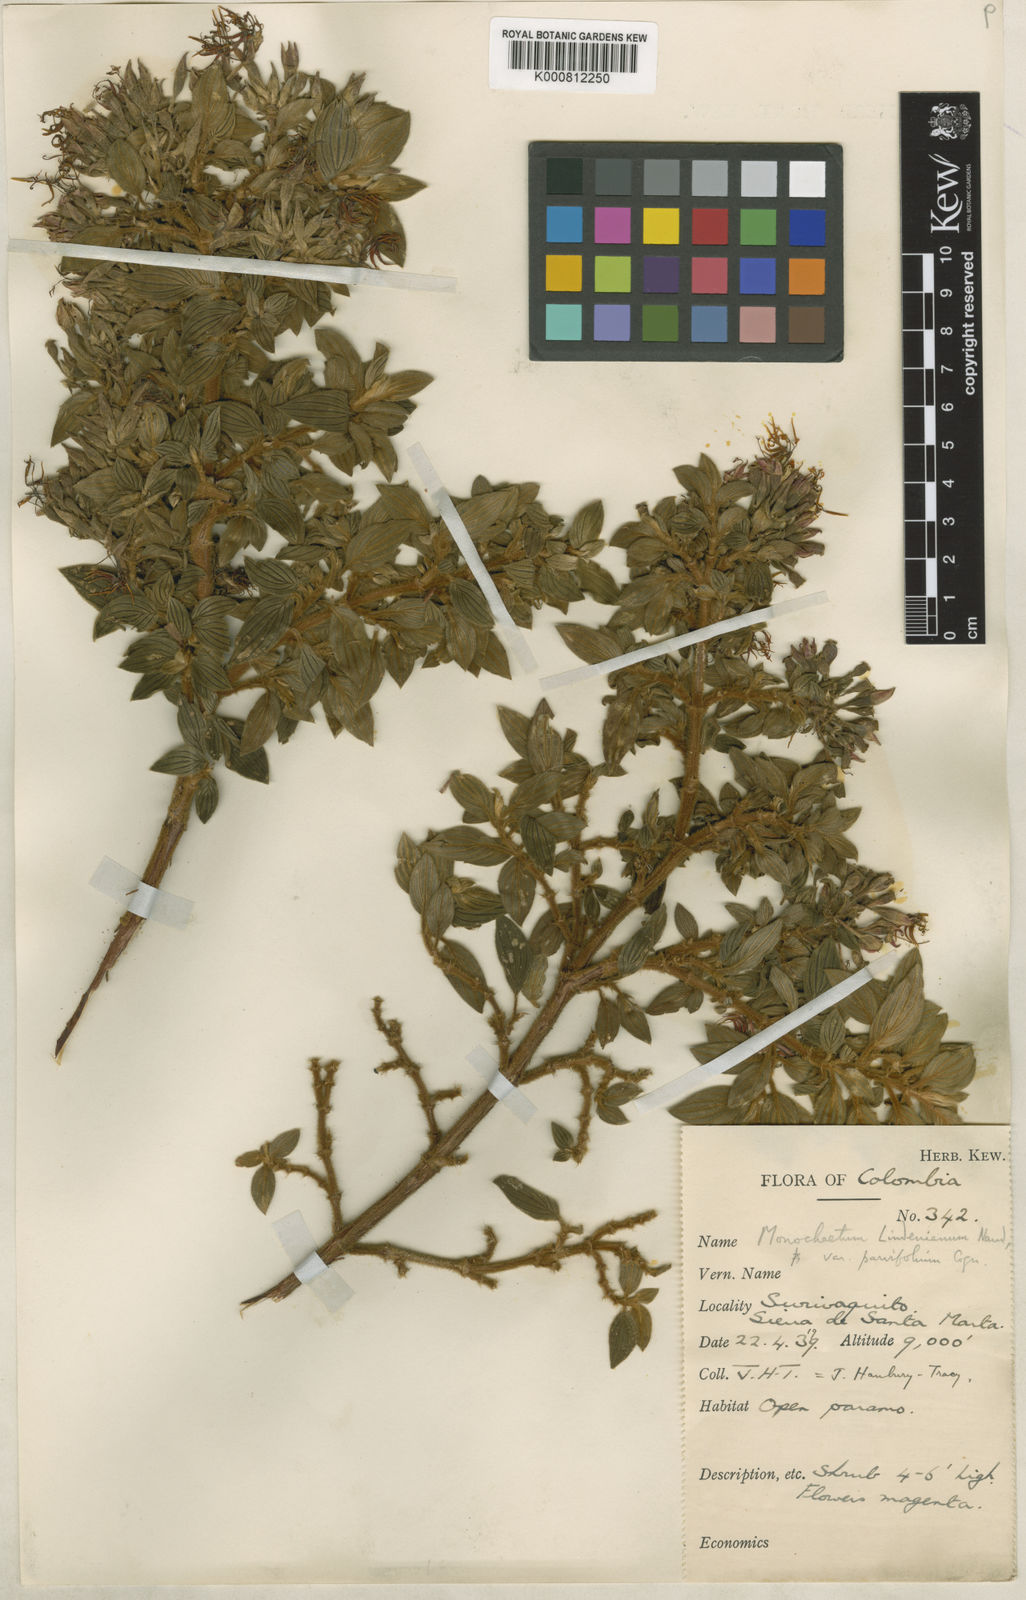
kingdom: Plantae
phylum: Tracheophyta
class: Magnoliopsida
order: Myrtales
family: Melastomataceae
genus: Monochaetum
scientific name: Monochaetum longicaudatum
